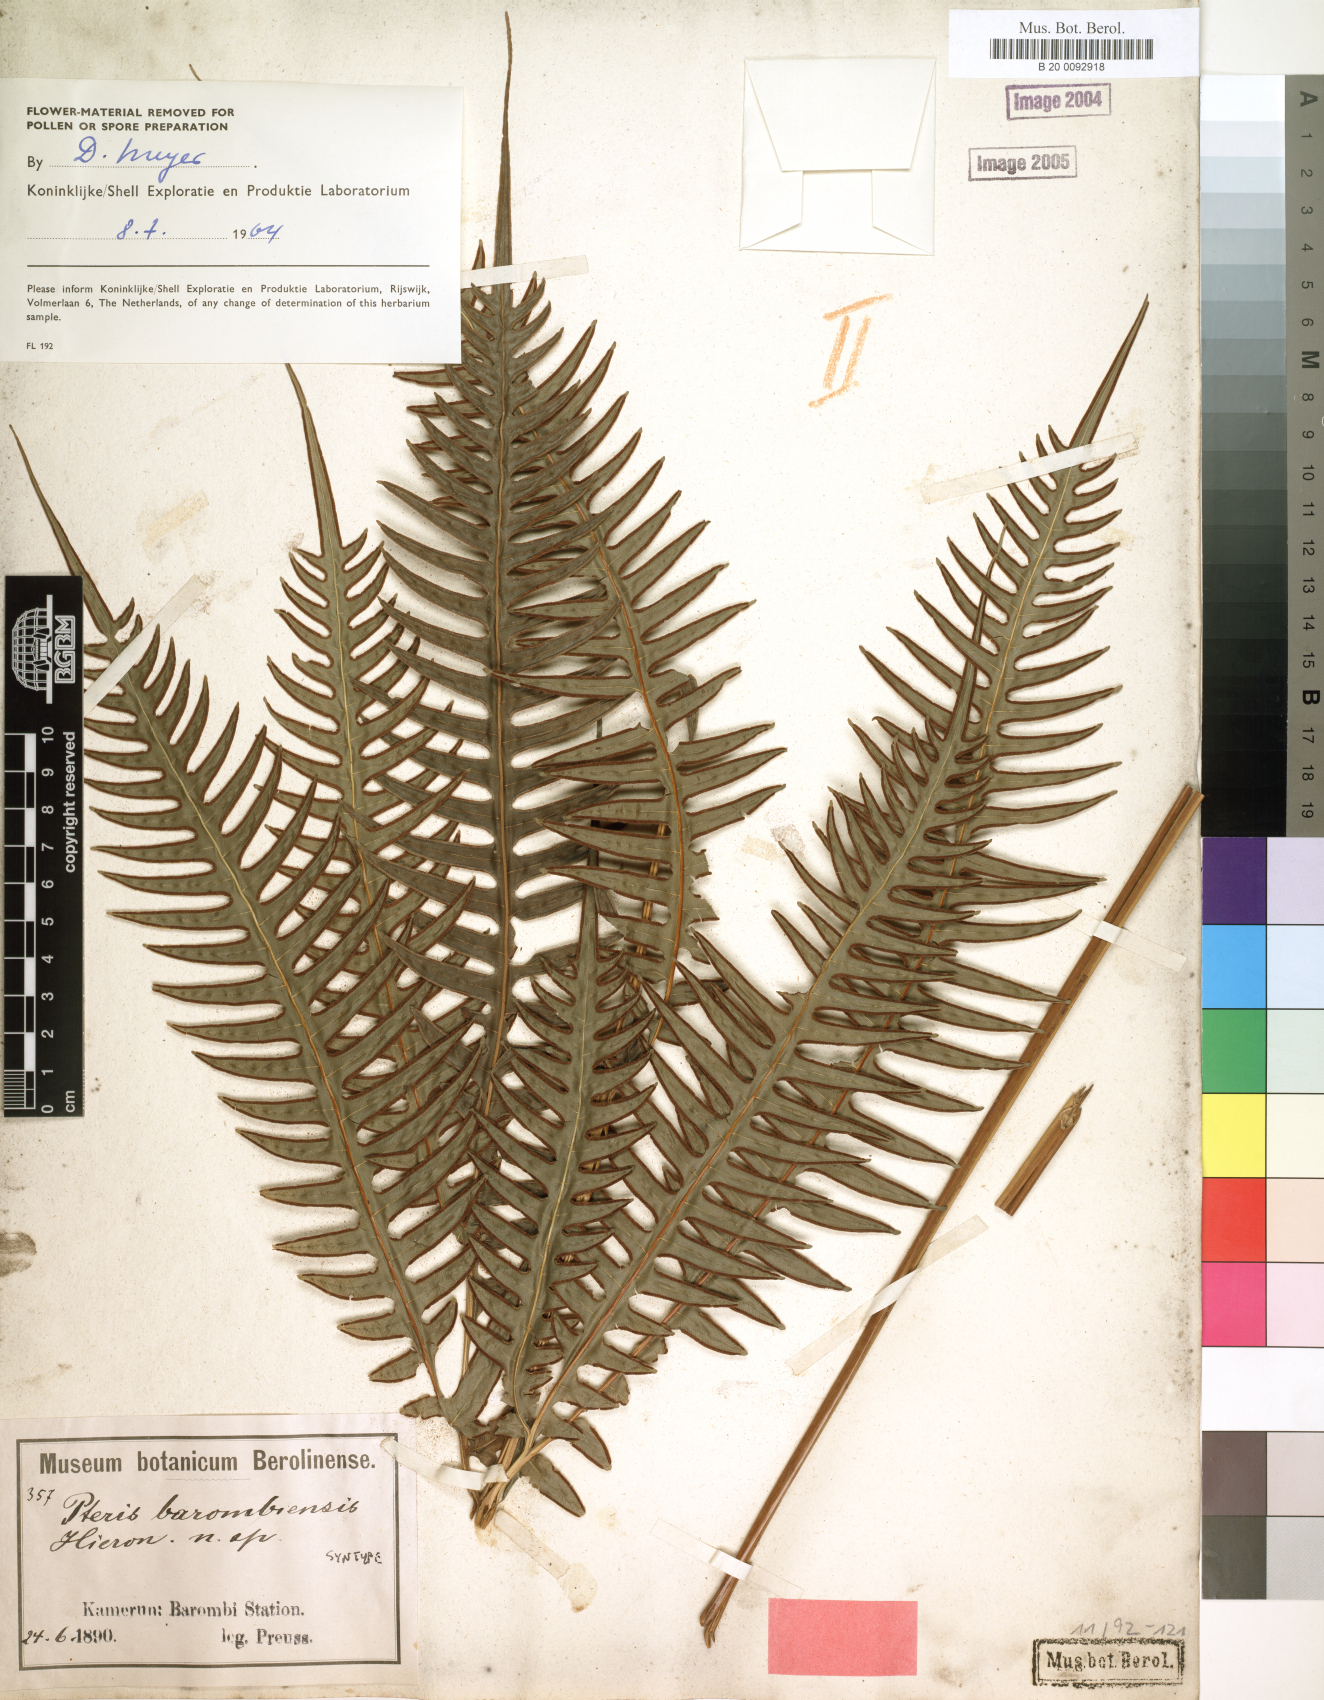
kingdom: Plantae
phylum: Tracheophyta
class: Polypodiopsida
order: Polypodiales
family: Pteridaceae
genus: Pteris
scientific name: Pteris barombiensis
